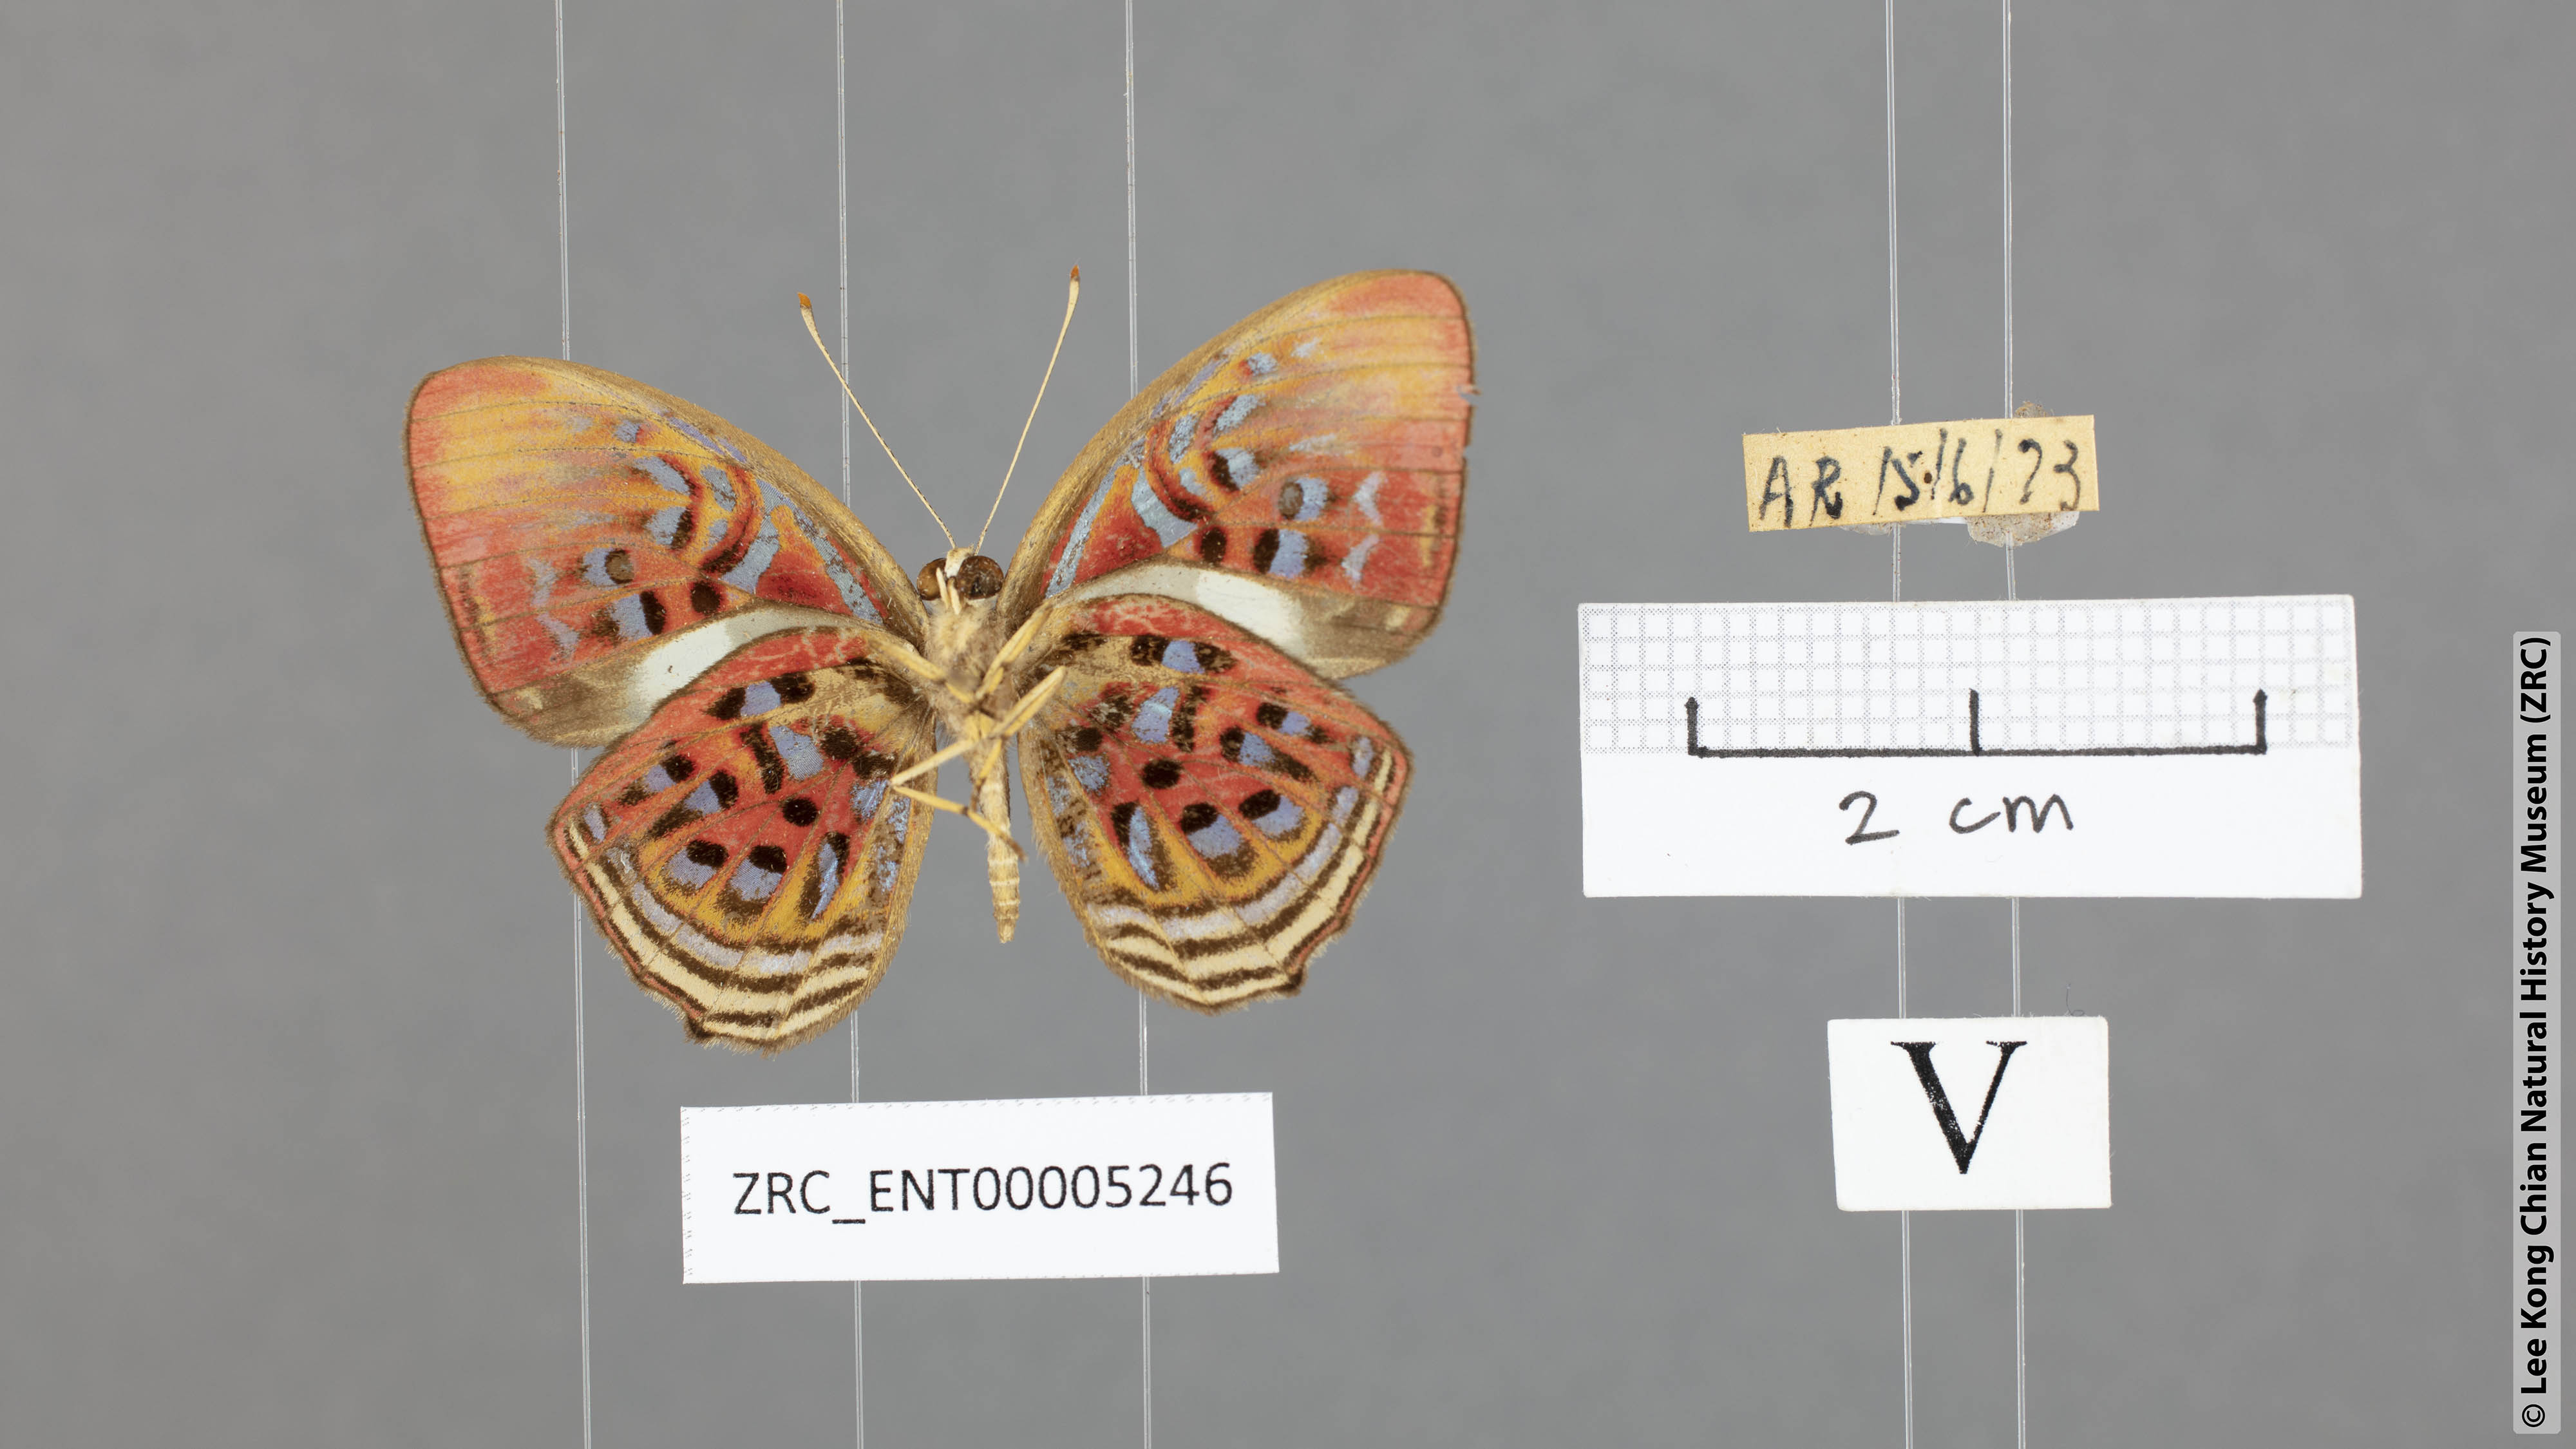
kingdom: Animalia
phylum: Arthropoda
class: Insecta
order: Lepidoptera
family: Riodinidae
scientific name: Riodinidae
